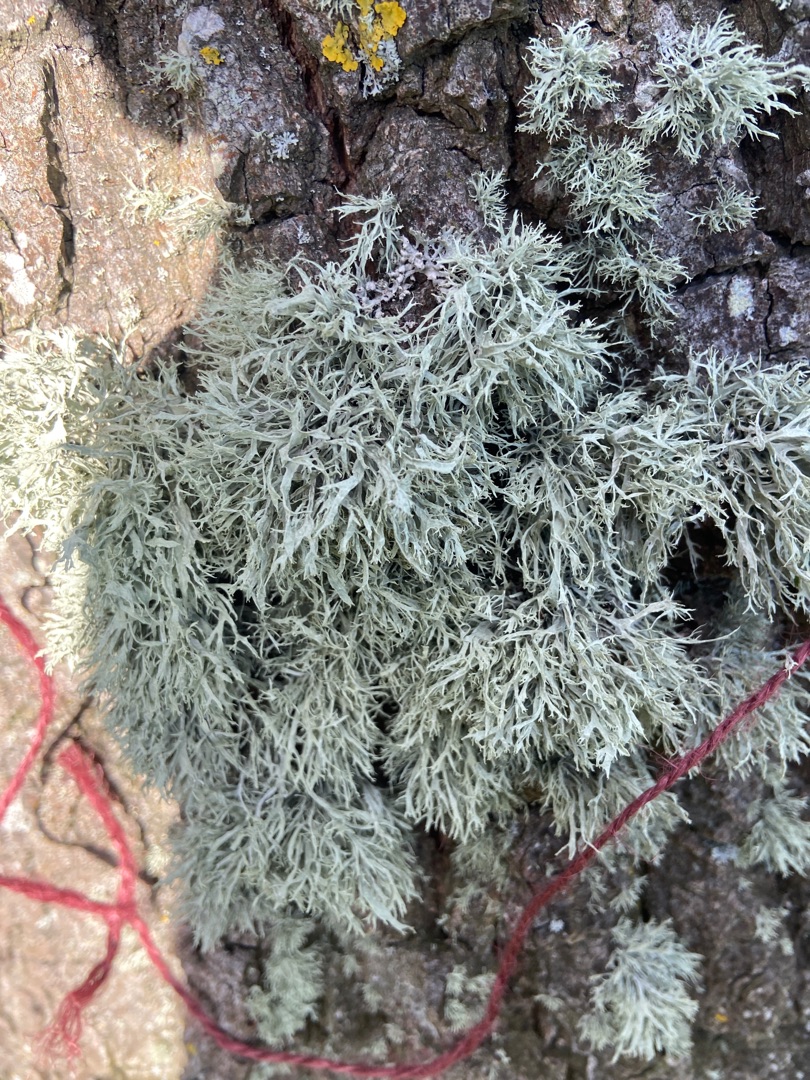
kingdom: Fungi
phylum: Ascomycota
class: Lecanoromycetes
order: Lecanorales
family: Ramalinaceae
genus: Ramalina
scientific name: Ramalina farinacea
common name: Melet grenlav
